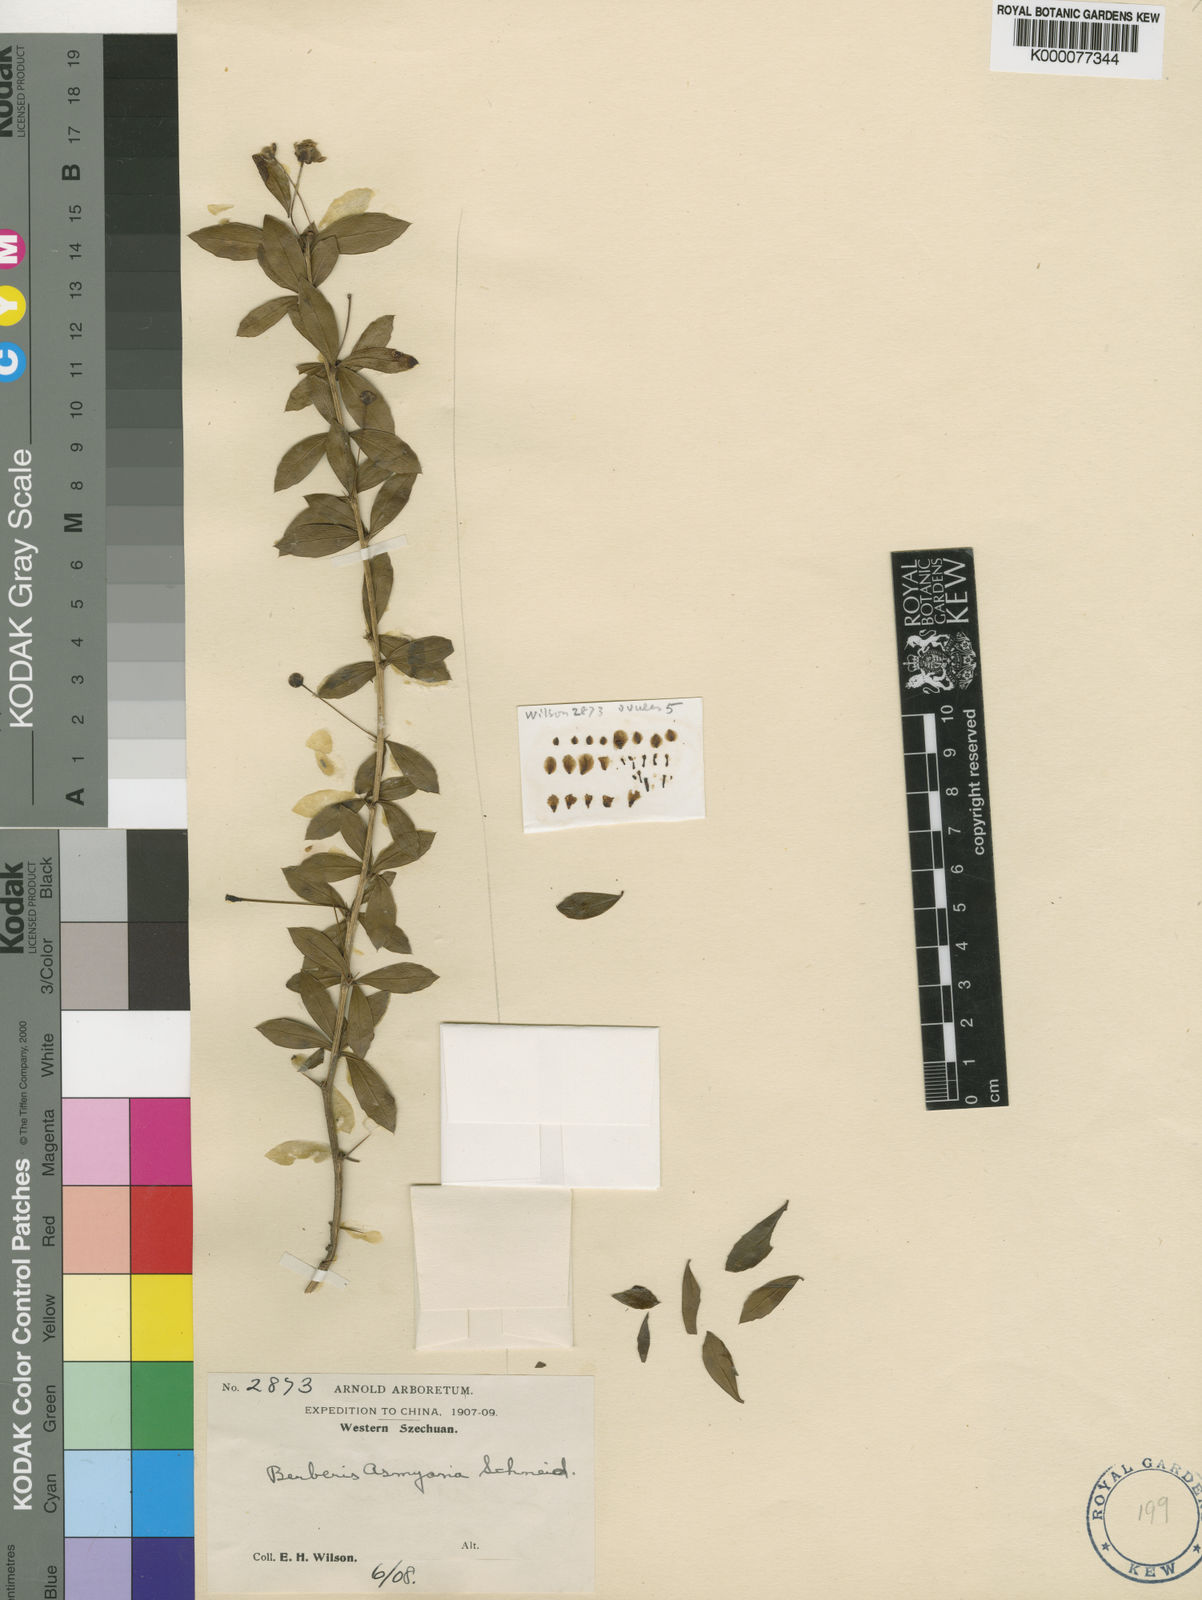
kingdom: Plantae
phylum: Tracheophyta
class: Magnoliopsida
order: Ranunculales
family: Berberidaceae
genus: Berberis
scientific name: Berberis asmyana
